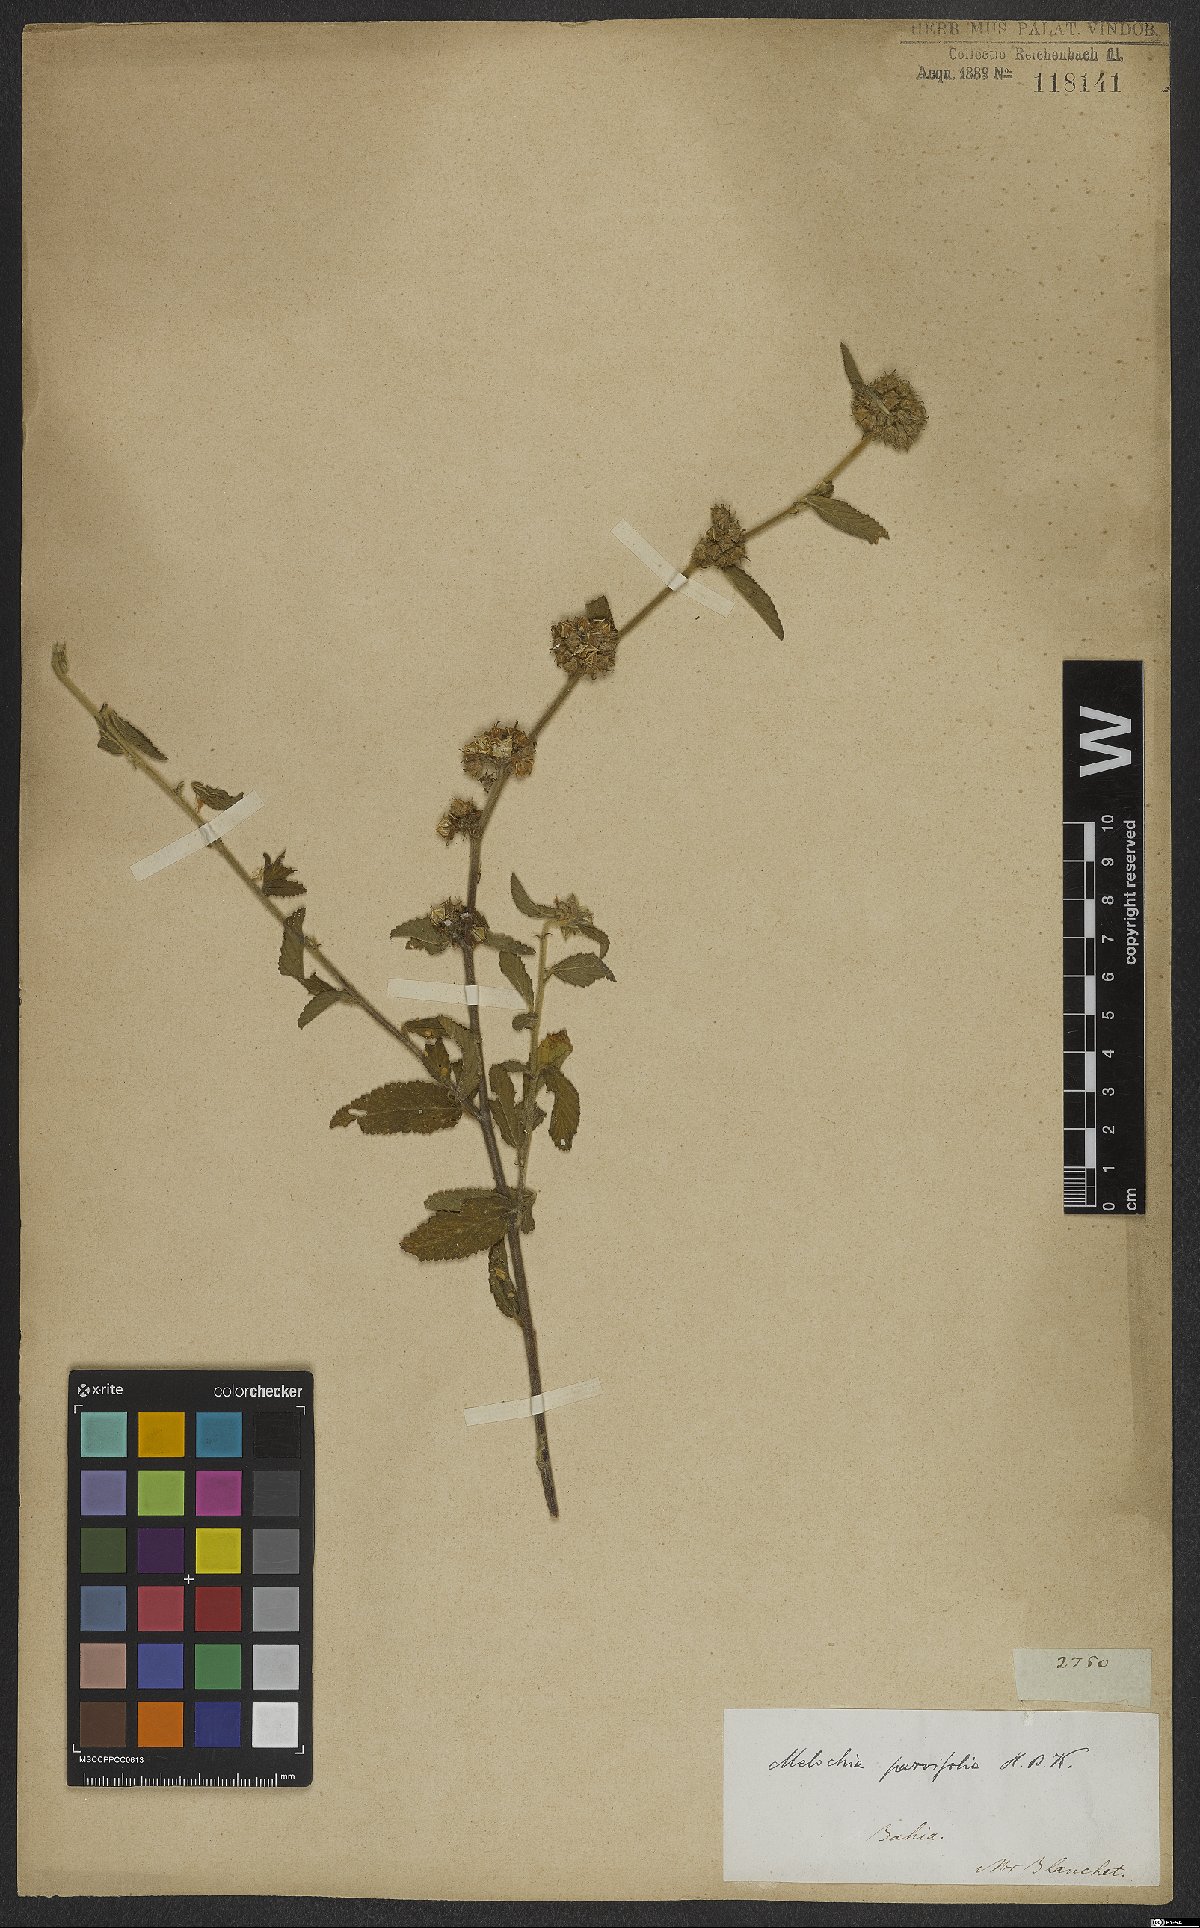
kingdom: Plantae
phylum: Tracheophyta
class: Magnoliopsida
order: Malvales
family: Malvaceae
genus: Melochia
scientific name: Melochia parvifolia
